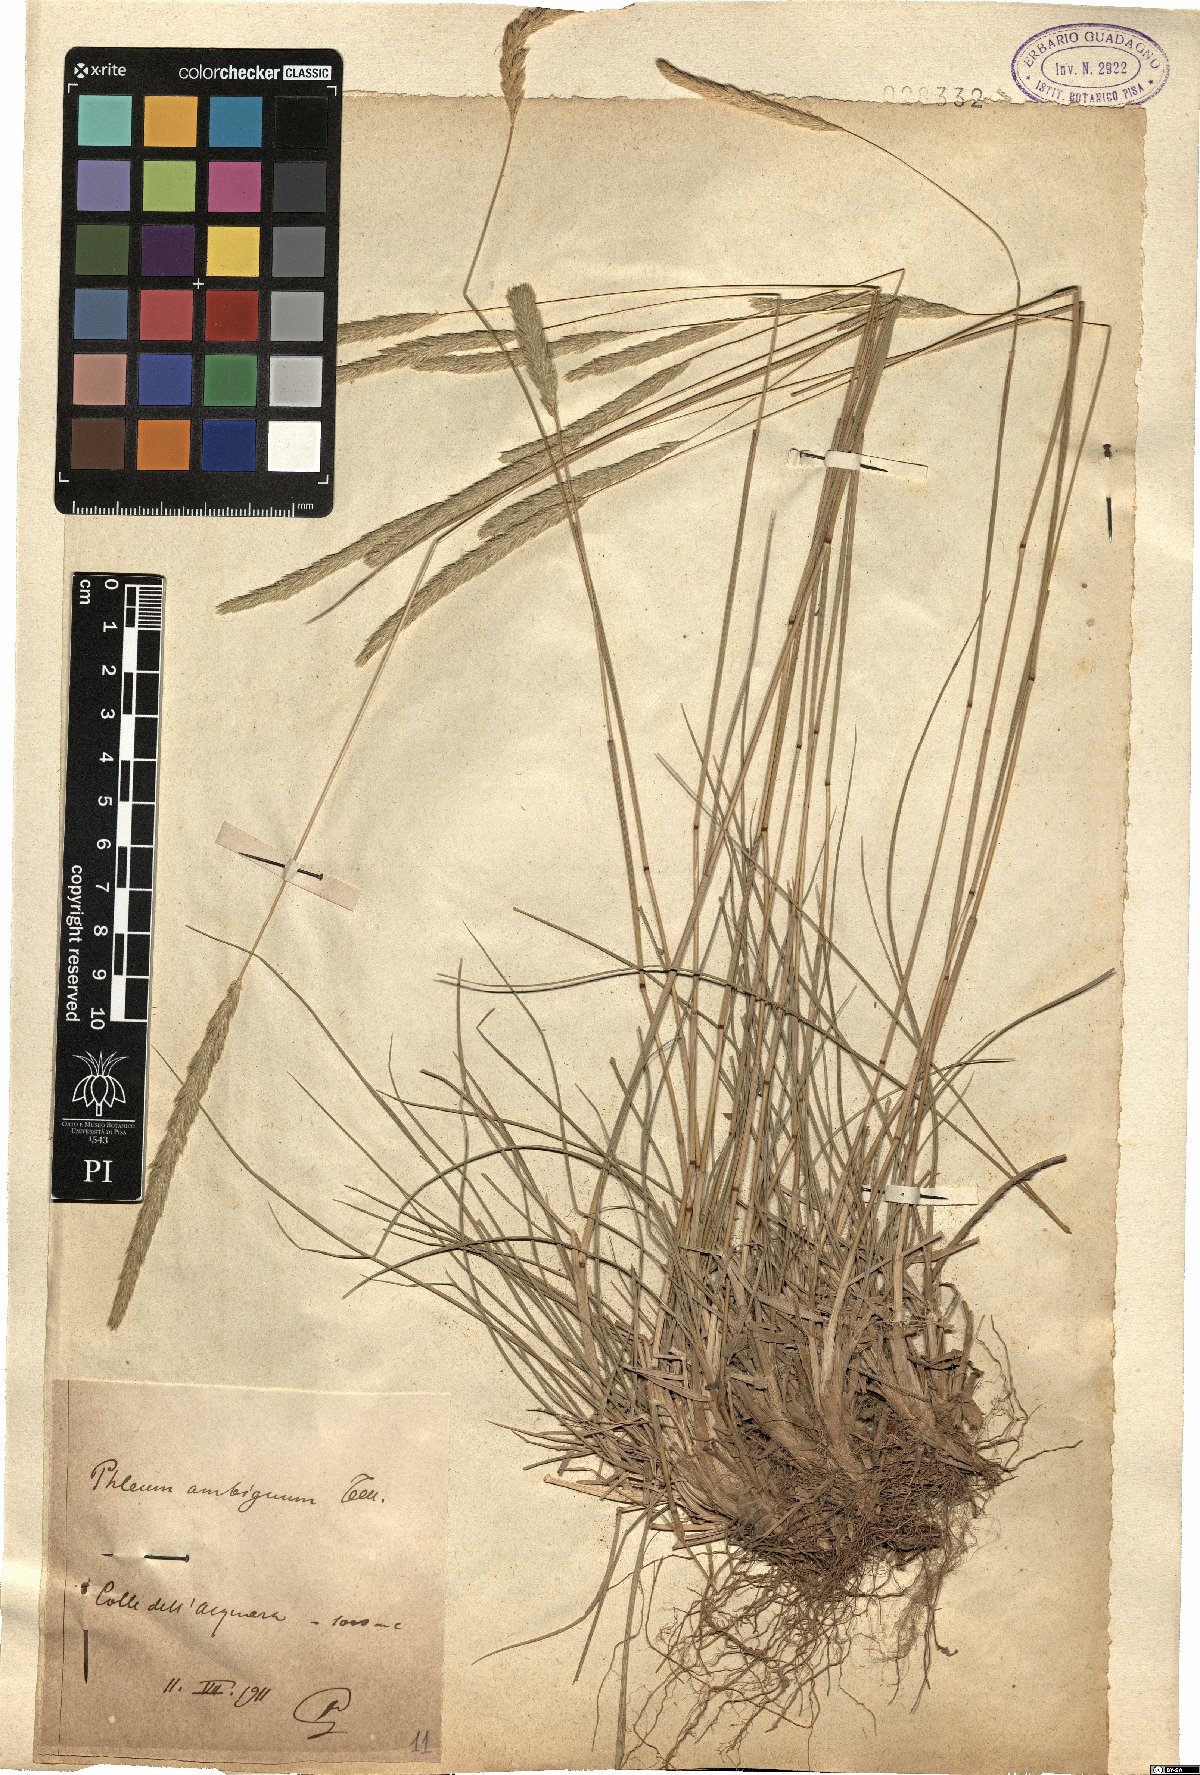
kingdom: Plantae
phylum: Tracheophyta
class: Liliopsida
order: Poales
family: Poaceae
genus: Phleum
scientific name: Phleum hirsutum
